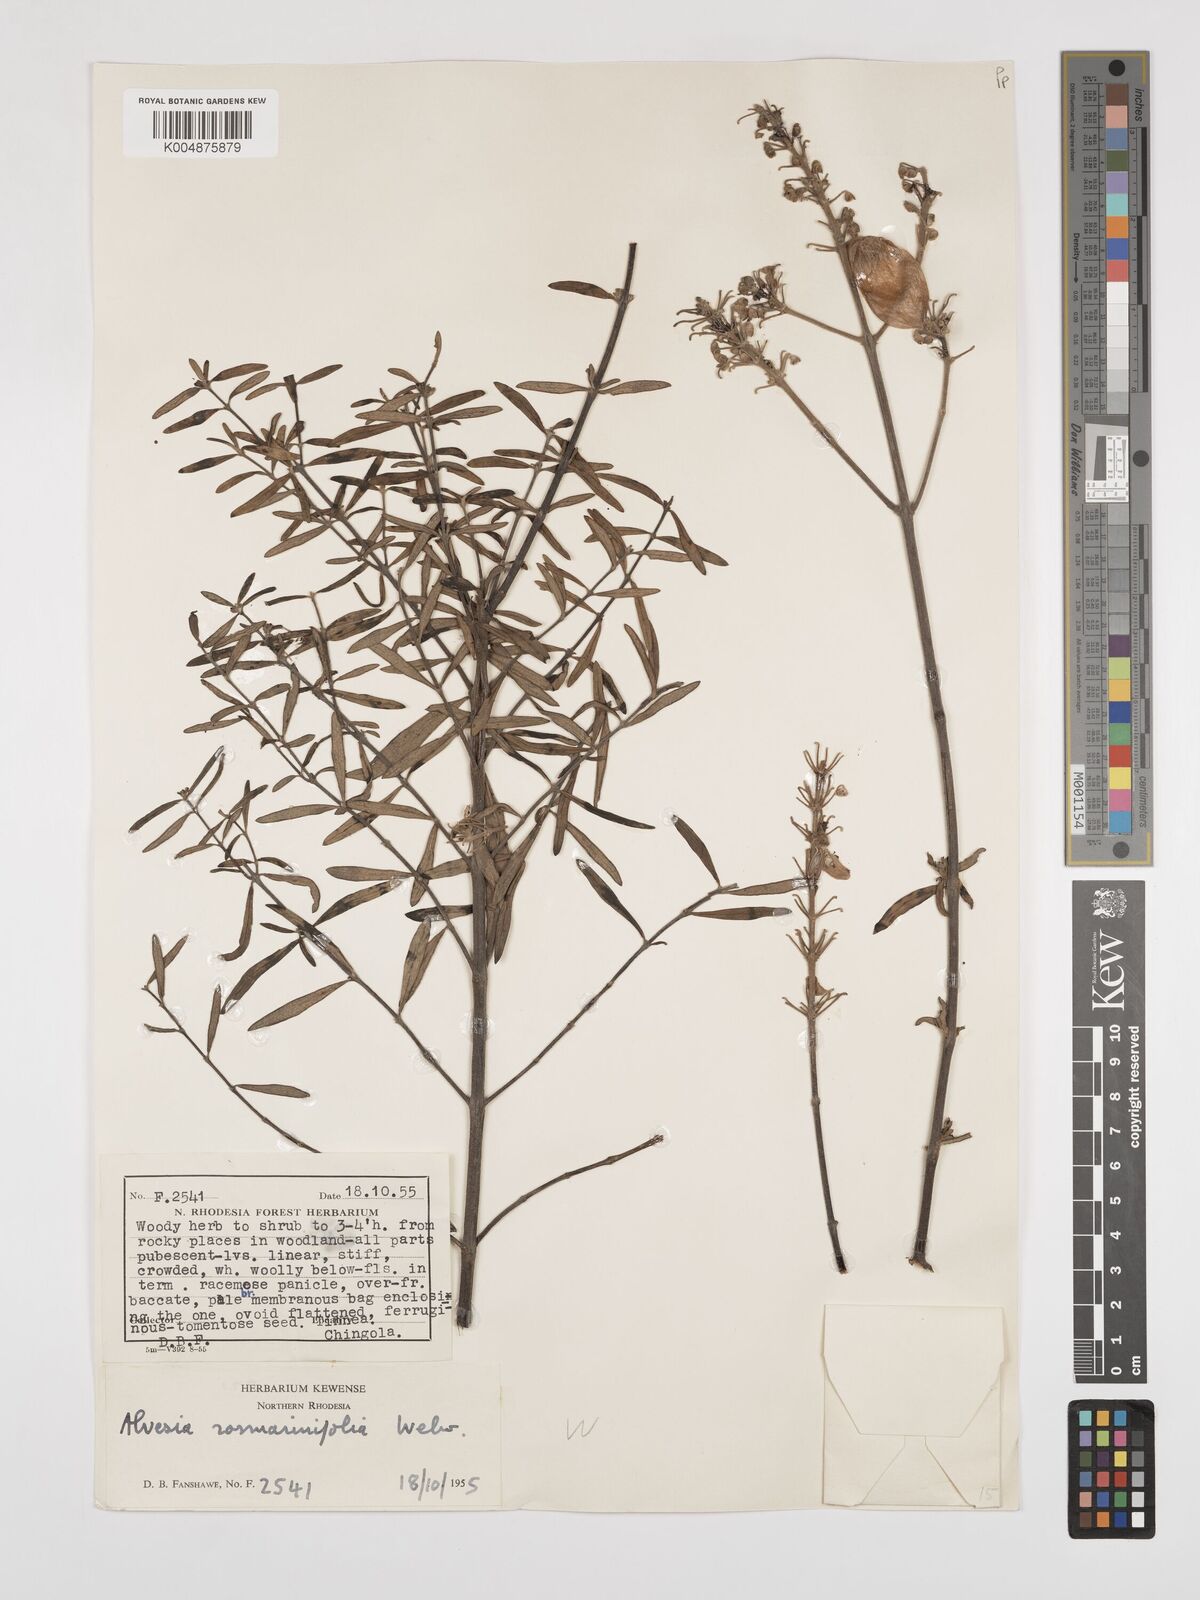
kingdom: Plantae
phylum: Tracheophyta
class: Magnoliopsida
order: Lamiales
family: Lamiaceae
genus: Alvesia
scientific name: Alvesia rosmarinifolia
